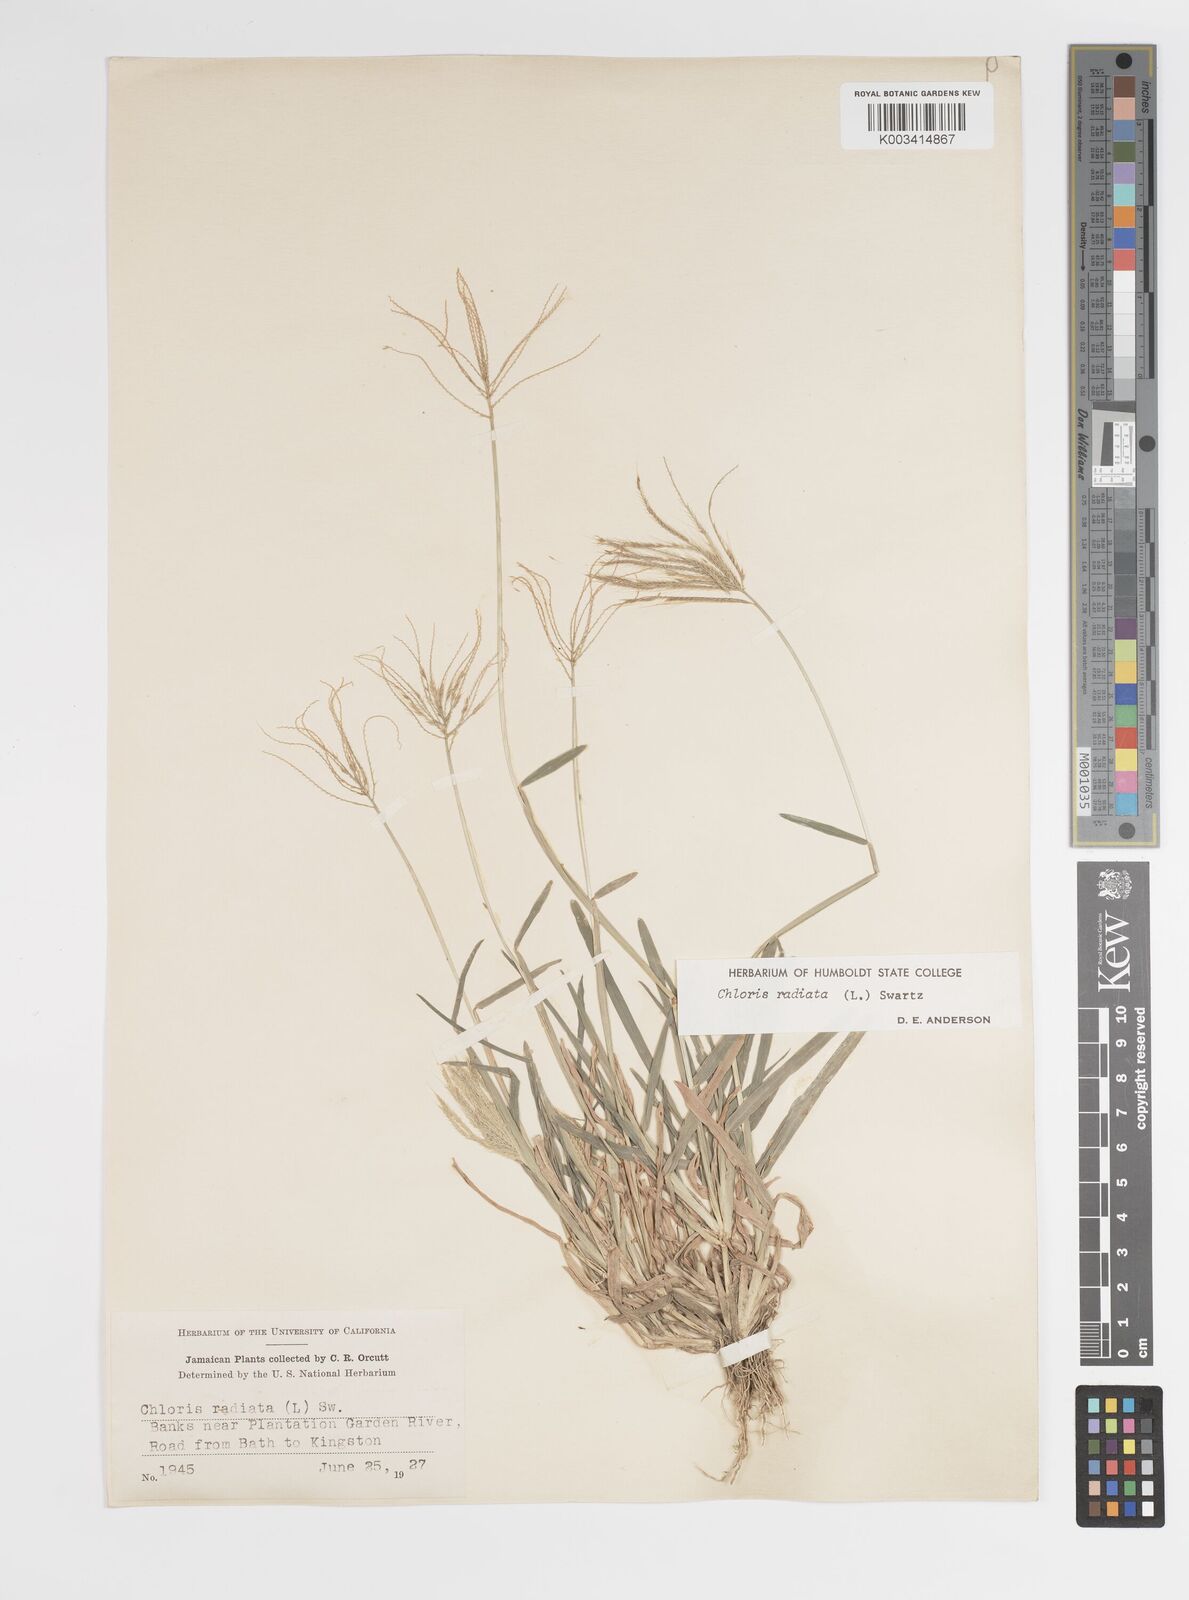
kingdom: Plantae
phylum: Tracheophyta
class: Liliopsida
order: Poales
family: Poaceae
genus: Chloris
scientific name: Chloris radiata
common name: Radiate fingergrass
